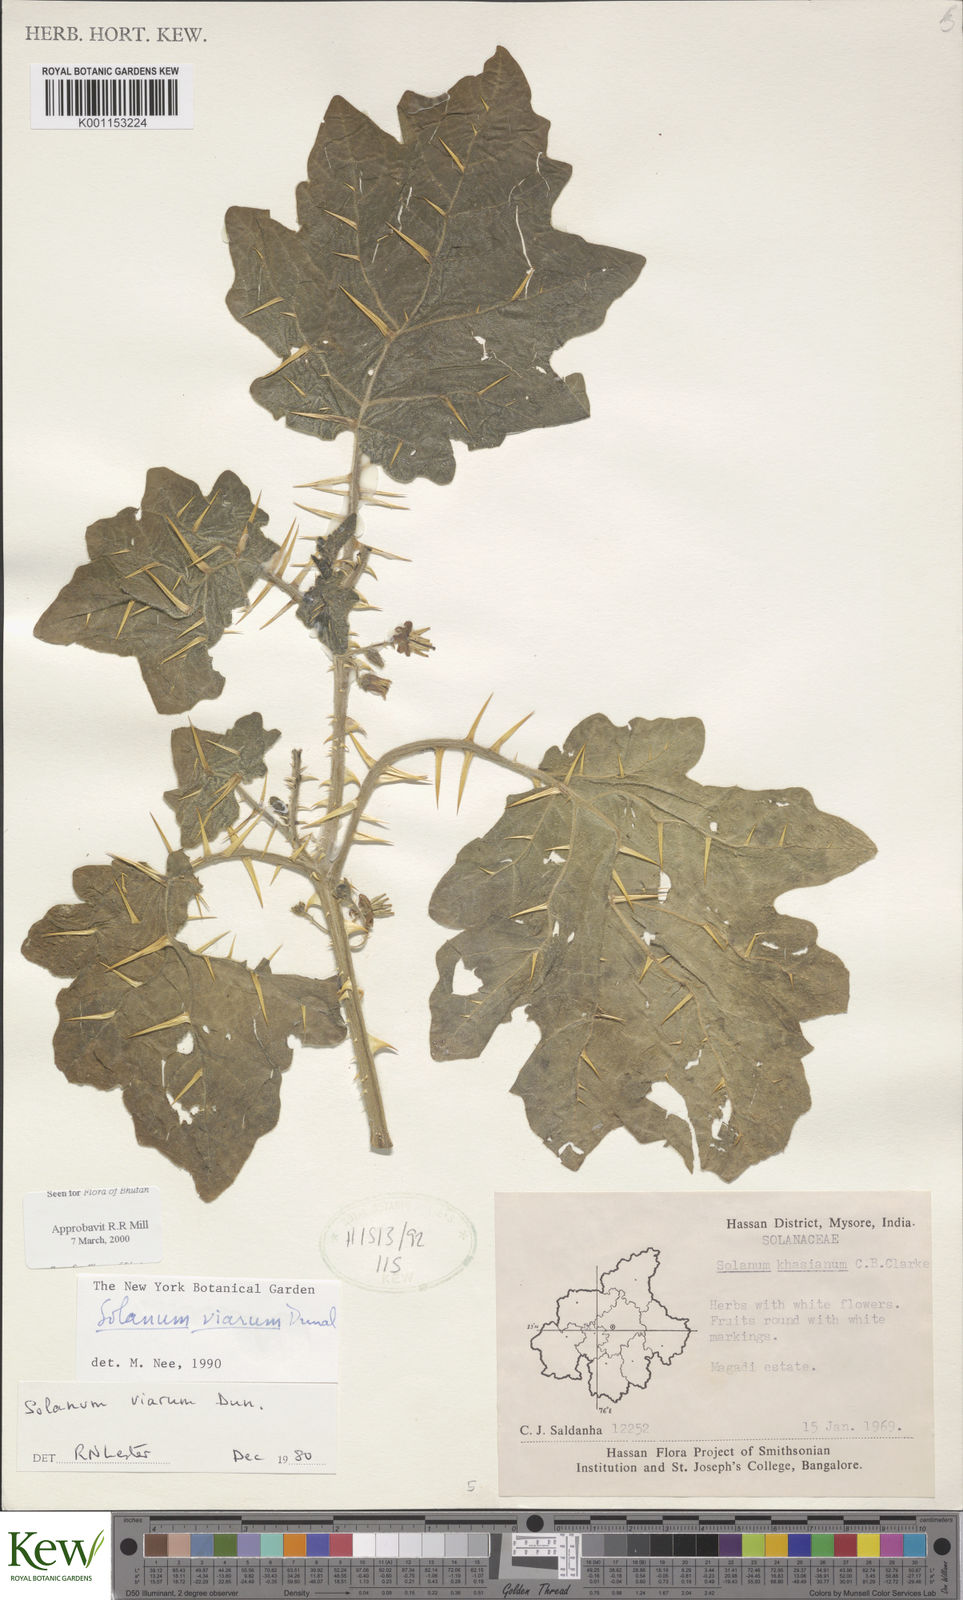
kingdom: Plantae
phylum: Tracheophyta
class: Magnoliopsida
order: Solanales
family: Solanaceae
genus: Solanum
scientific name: Solanum viarum
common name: Tropical soda apple
